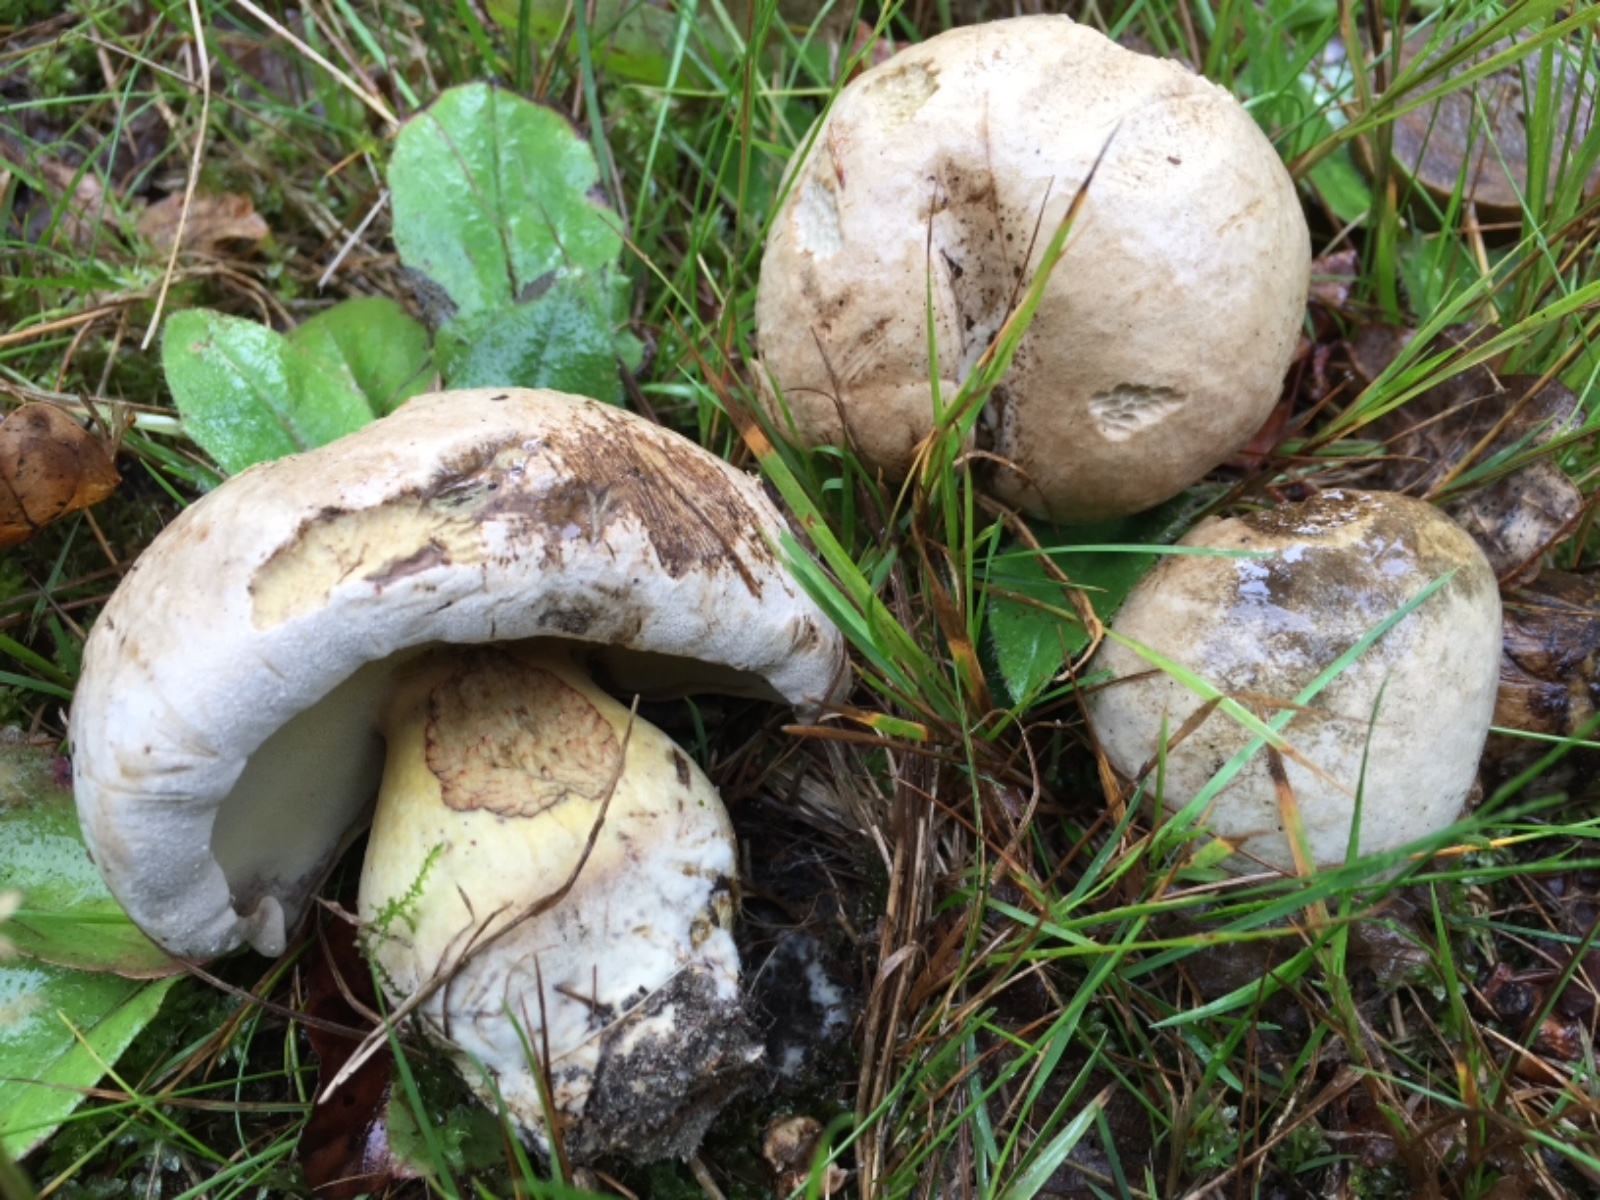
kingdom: Fungi
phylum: Basidiomycota
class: Agaricomycetes
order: Boletales
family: Boletaceae
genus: Caloboletus
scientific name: Caloboletus radicans
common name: rod-rørhat
